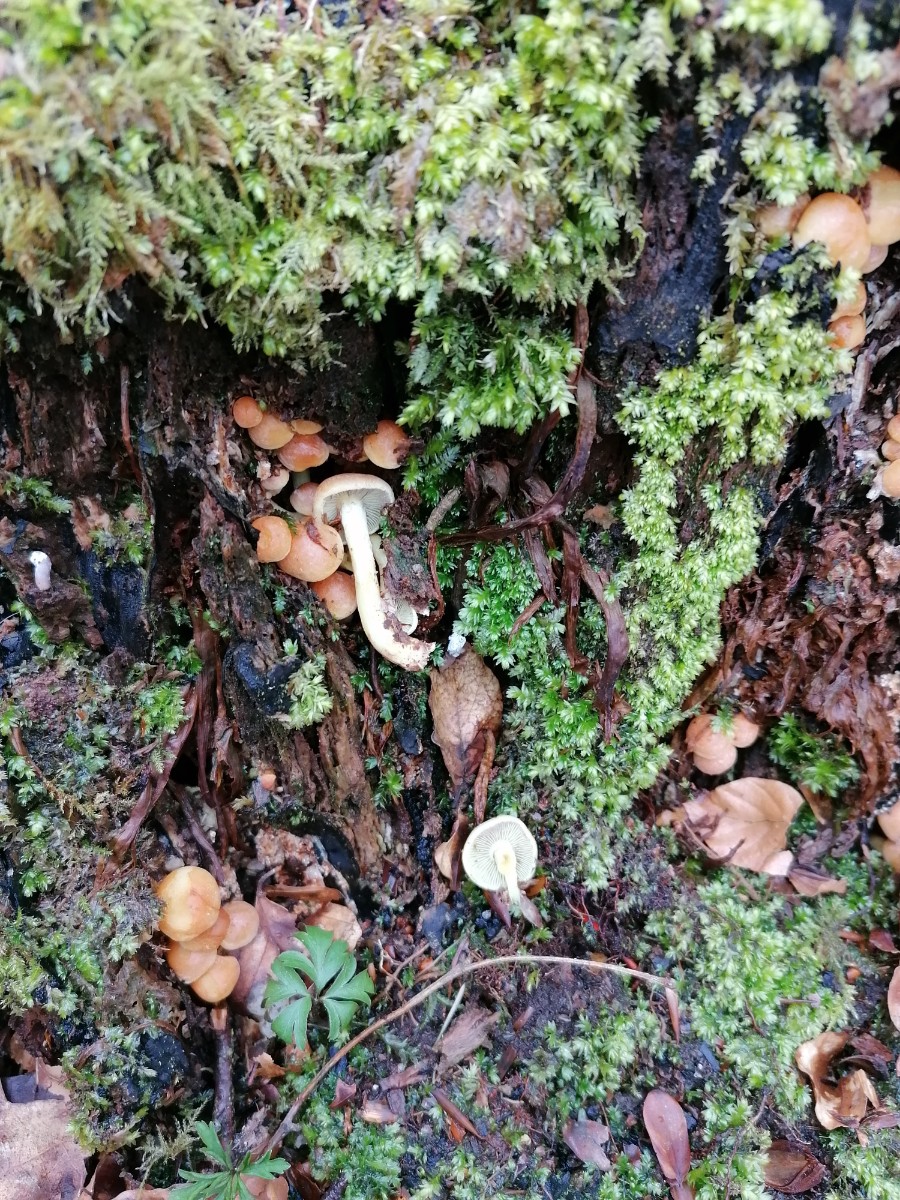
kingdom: Fungi
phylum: Basidiomycota
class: Agaricomycetes
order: Agaricales
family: Strophariaceae
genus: Hypholoma
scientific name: Hypholoma fasciculare
